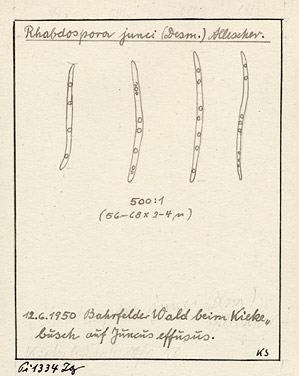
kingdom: Plantae
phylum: Tracheophyta
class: Liliopsida
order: Poales
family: Juncaceae
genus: Juncus
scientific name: Juncus effusus
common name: Soft rush
